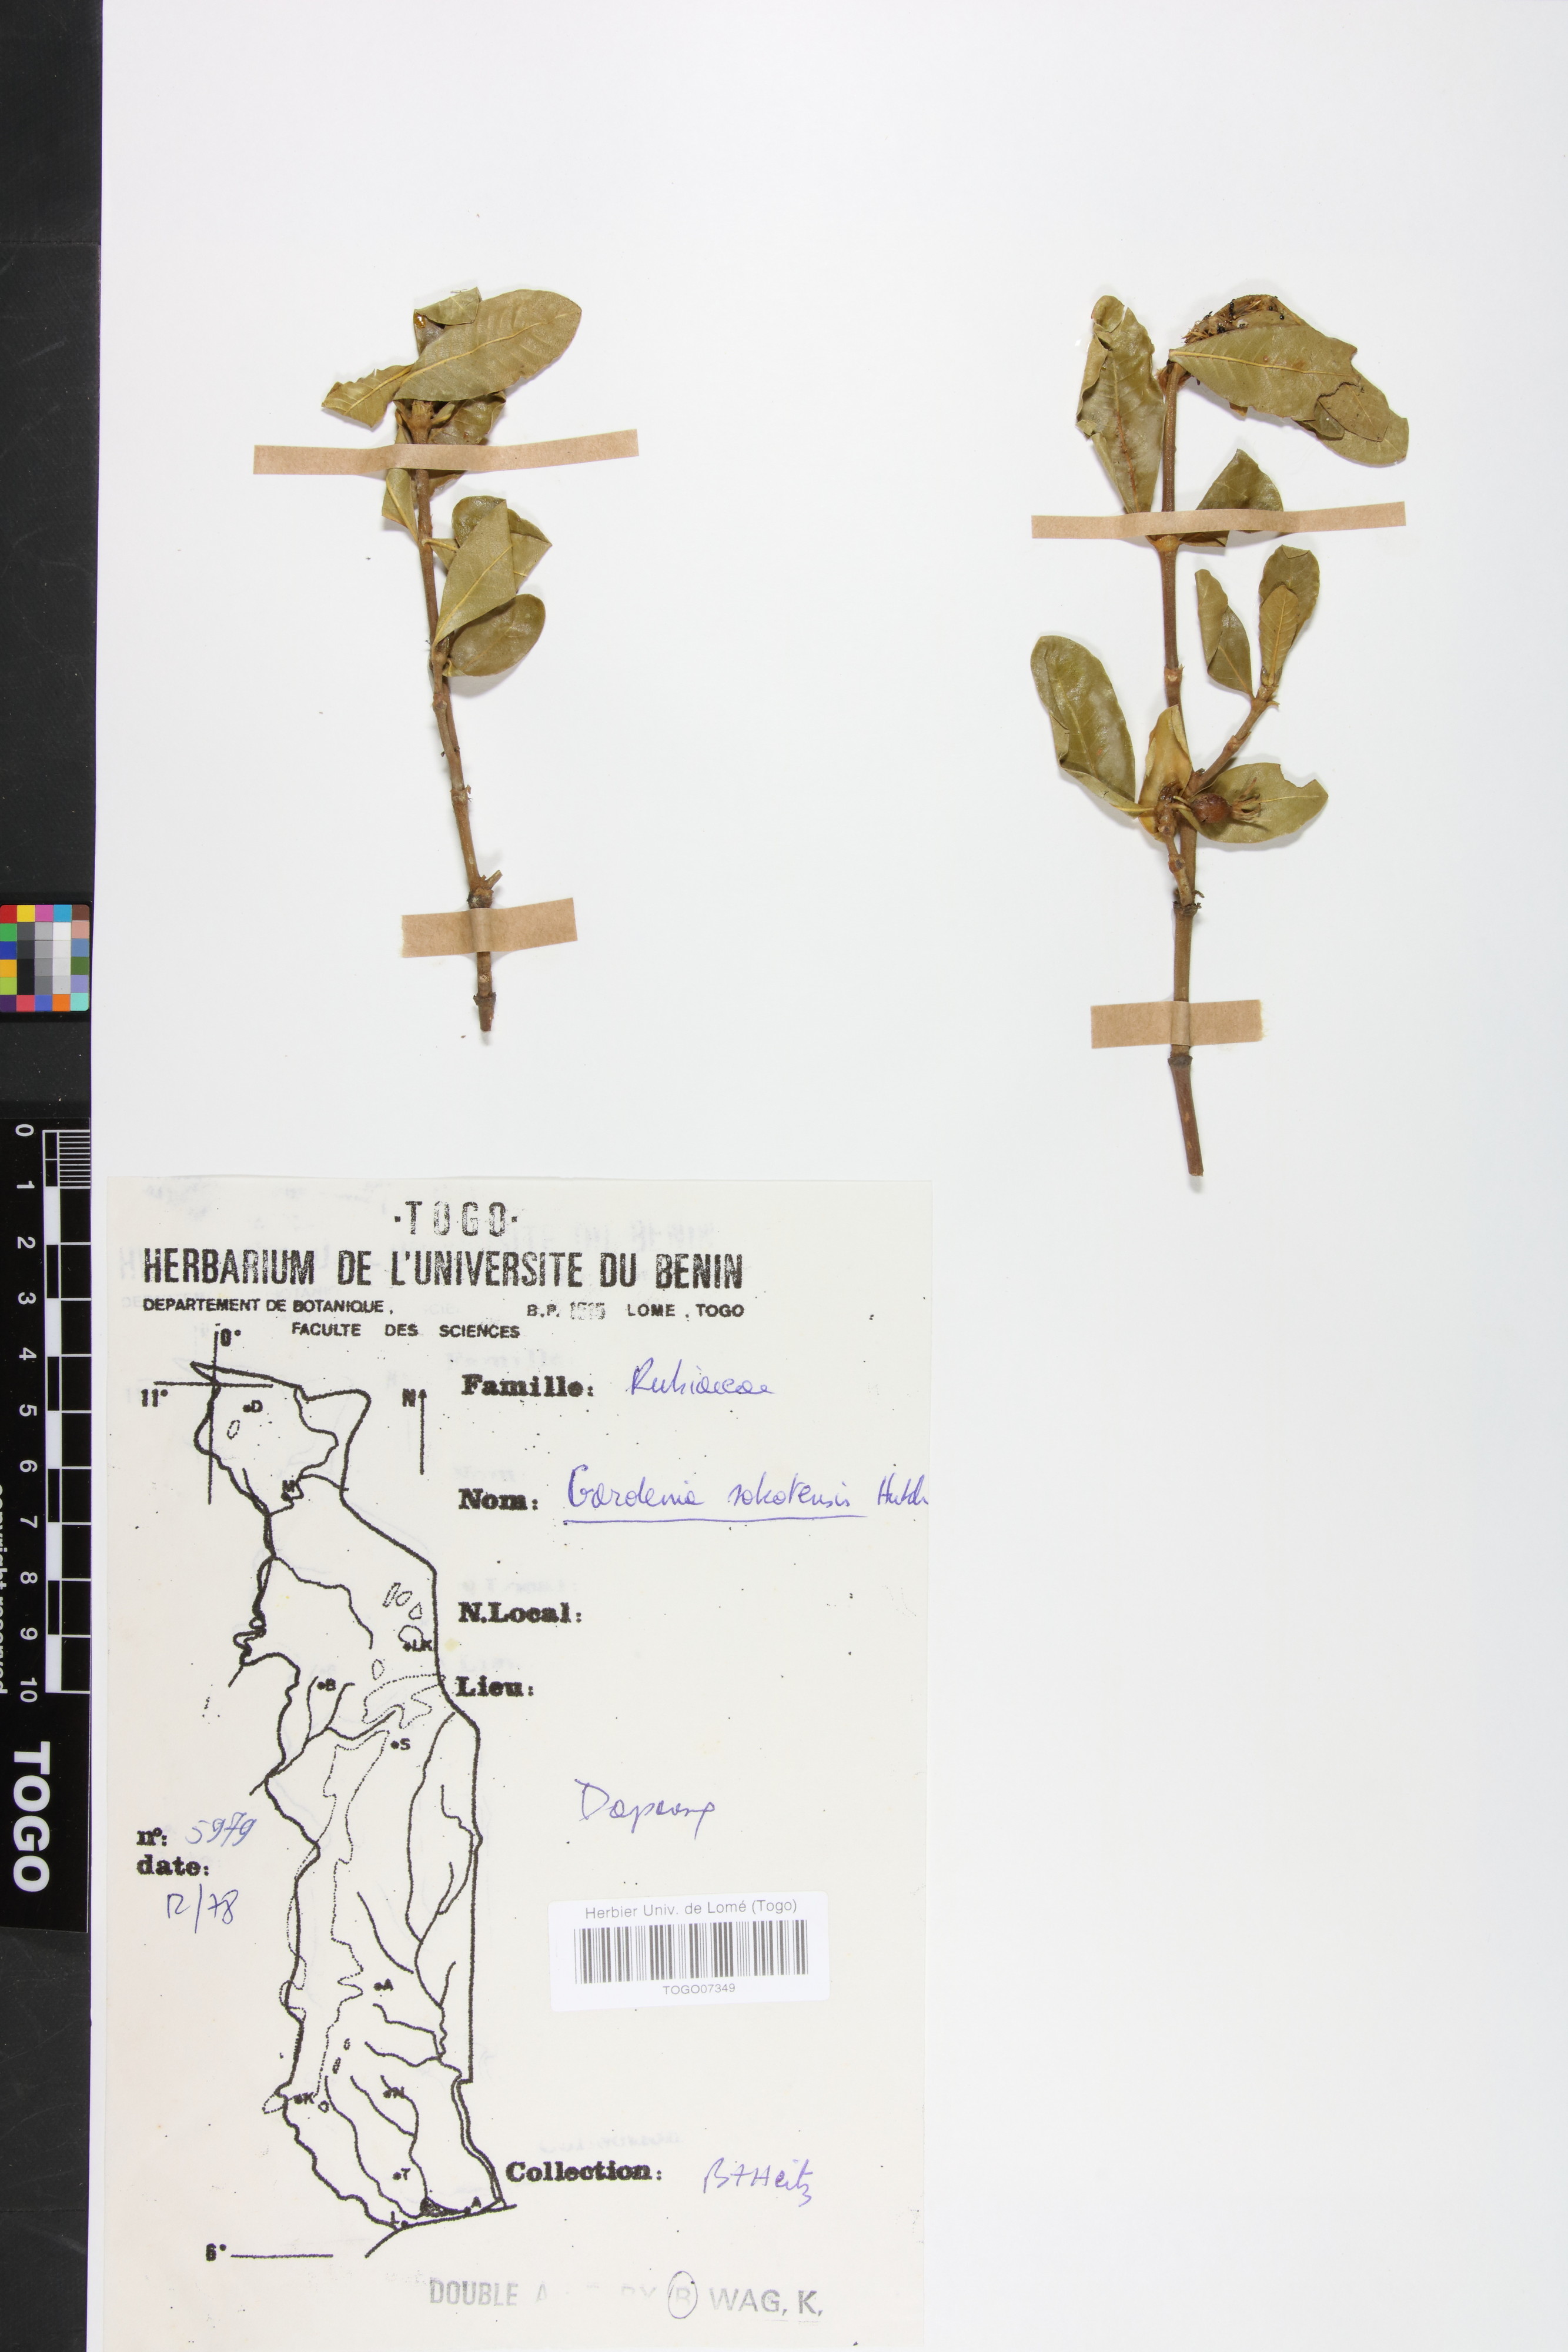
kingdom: Plantae
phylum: Tracheophyta
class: Magnoliopsida
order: Gentianales
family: Rubiaceae
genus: Gardenia
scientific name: Gardenia sokotensis
